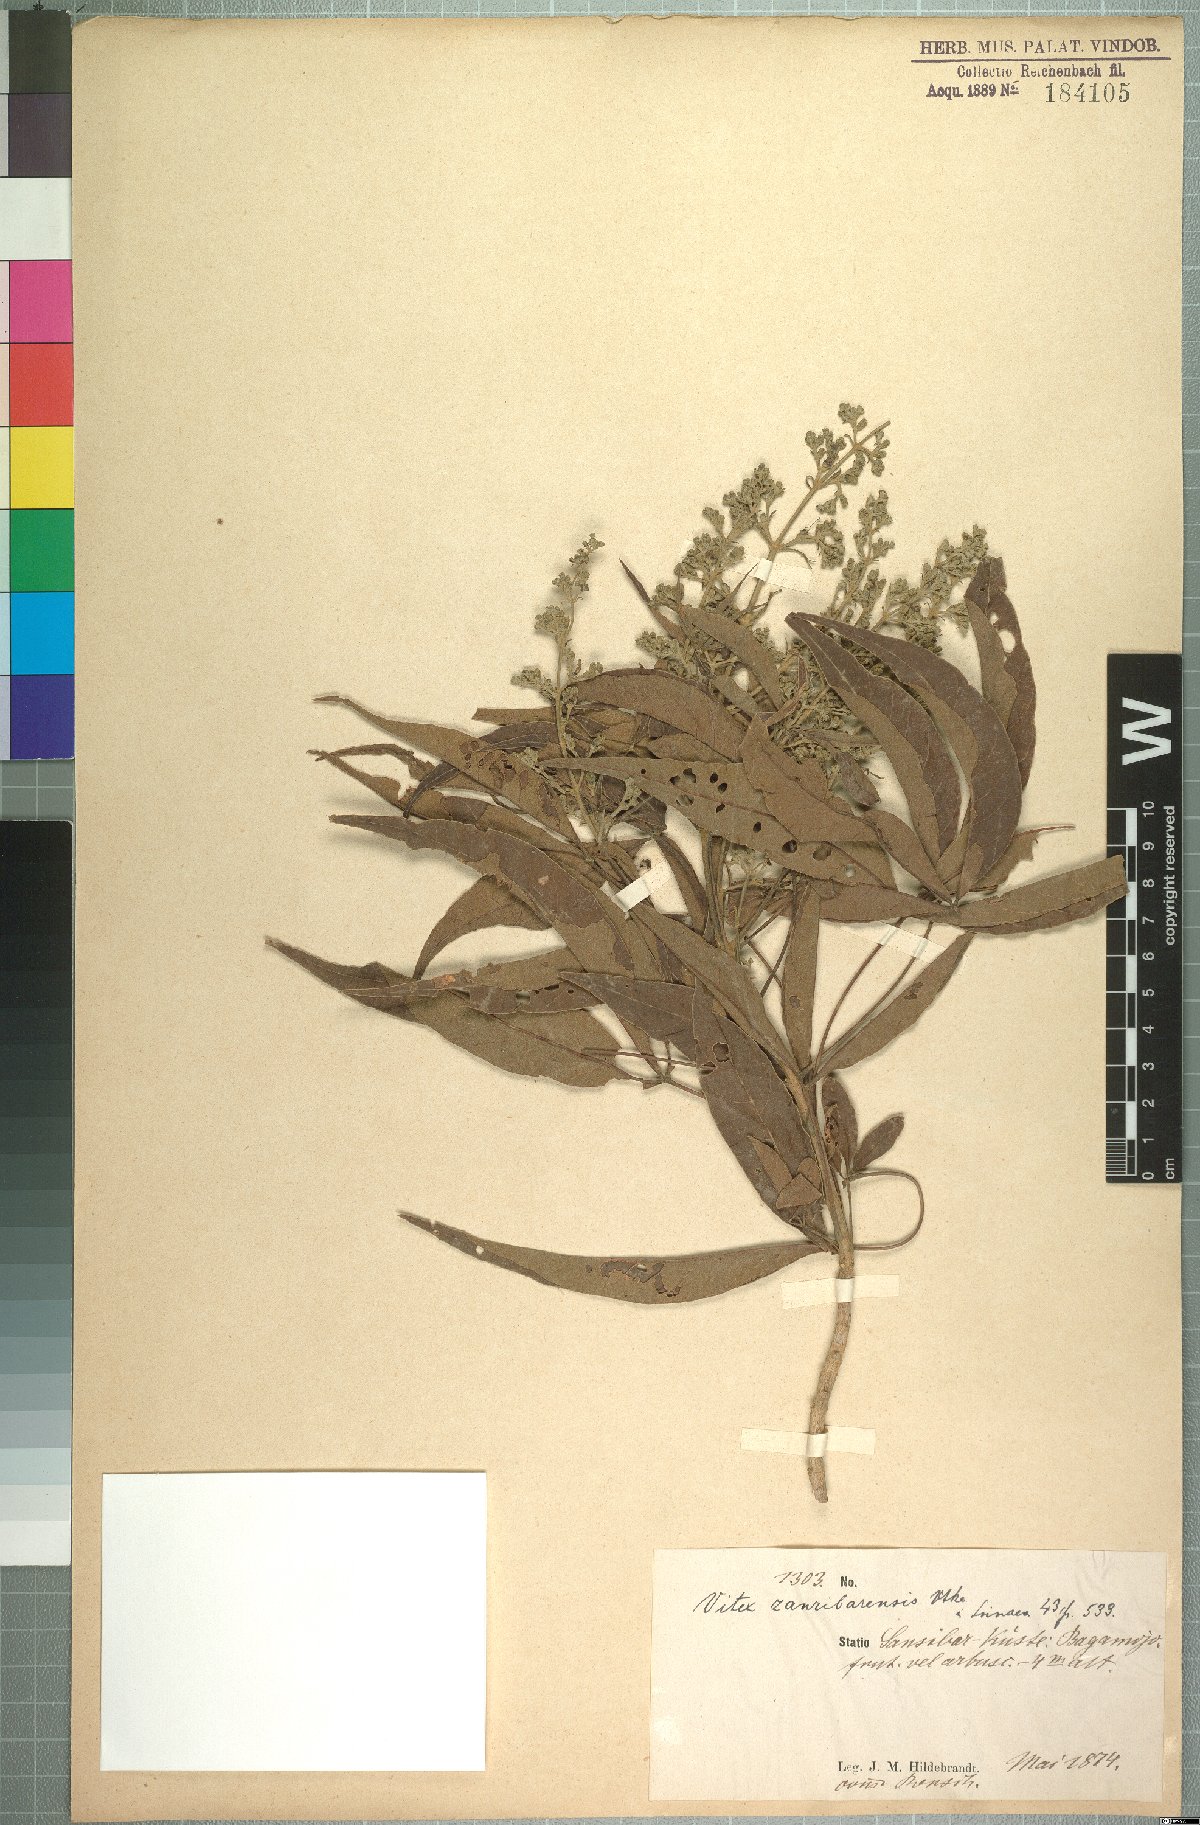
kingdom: Plantae
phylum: Tracheophyta
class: Magnoliopsida
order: Lamiales
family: Lamiaceae
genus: Vitex
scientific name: Vitex zanzibarensis
